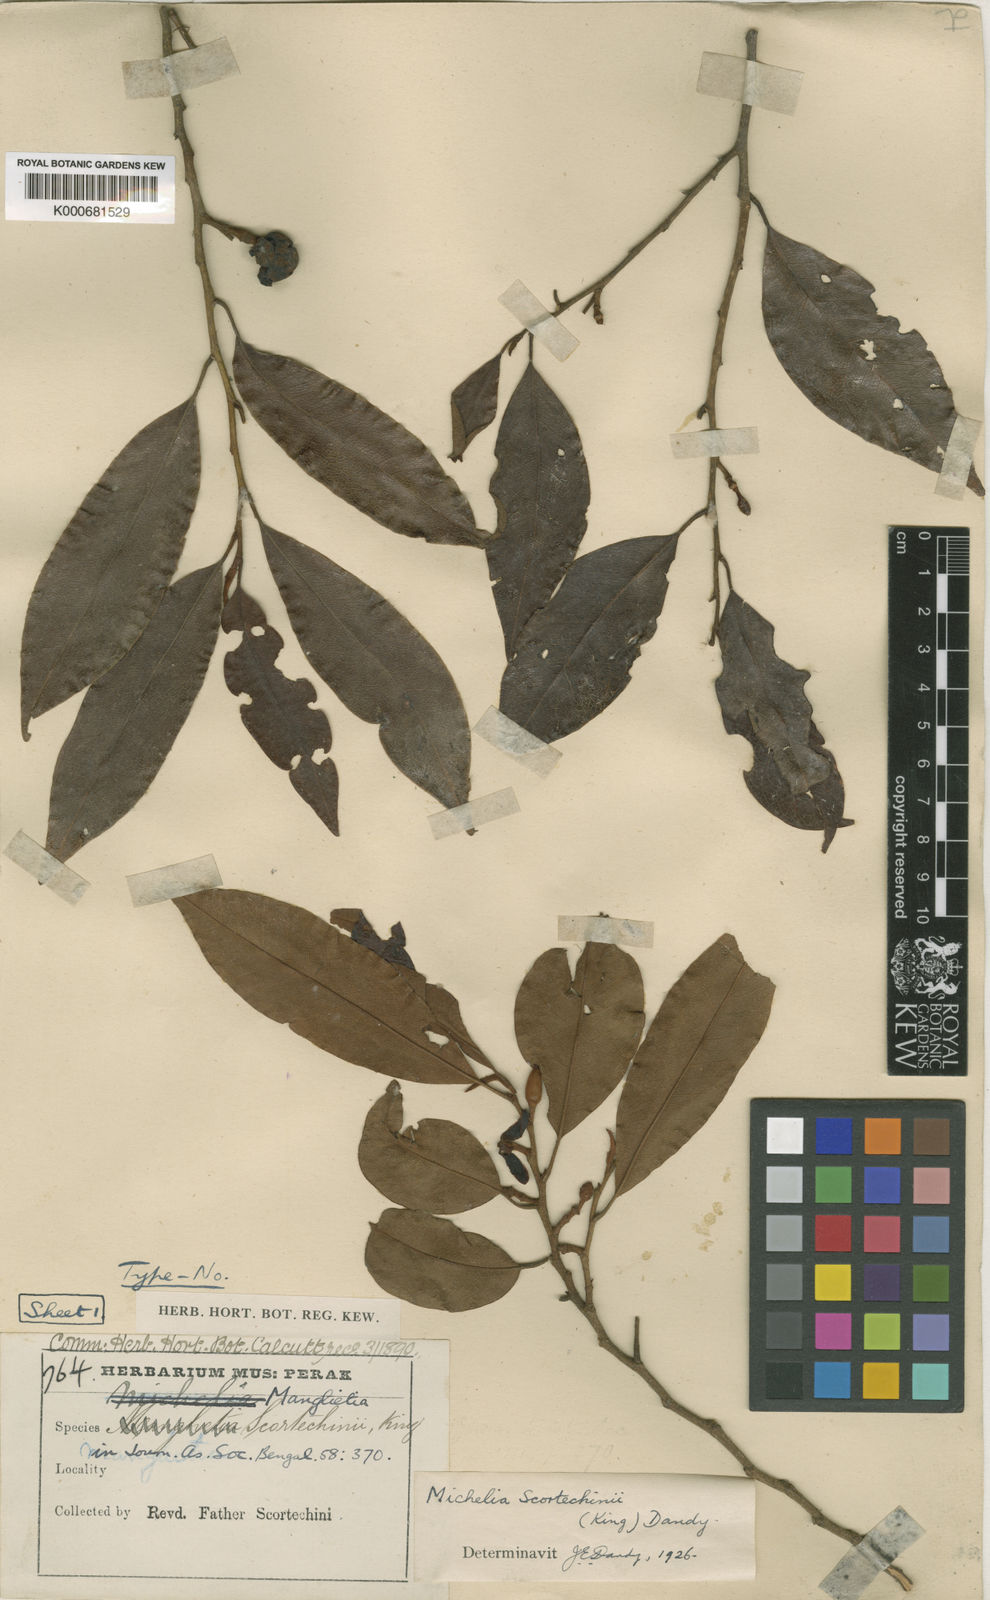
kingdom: Plantae
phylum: Tracheophyta
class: Magnoliopsida
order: Magnoliales
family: Magnoliaceae
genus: Magnolia
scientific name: Magnolia scortechinii
